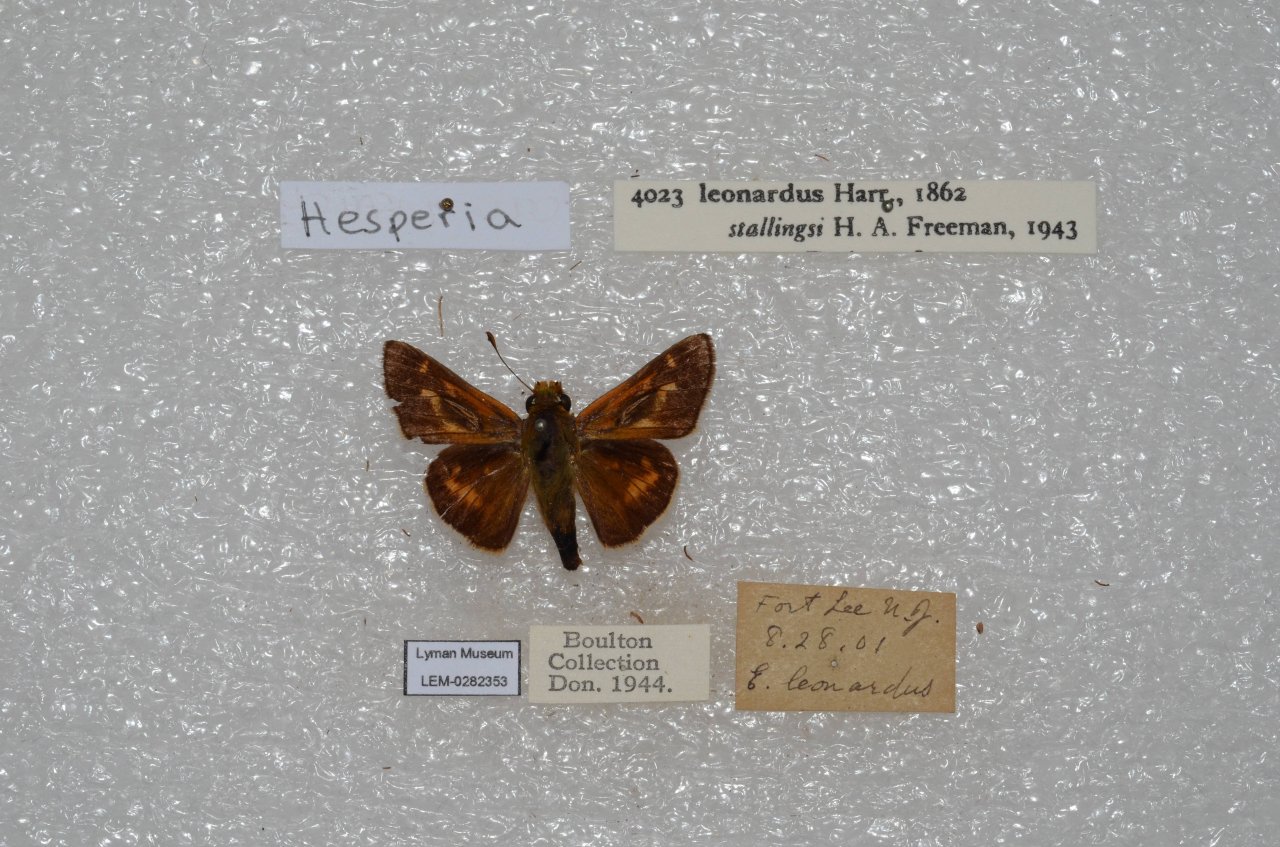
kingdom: Animalia
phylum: Arthropoda
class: Insecta
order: Lepidoptera
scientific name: Lepidoptera
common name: Butterflies
